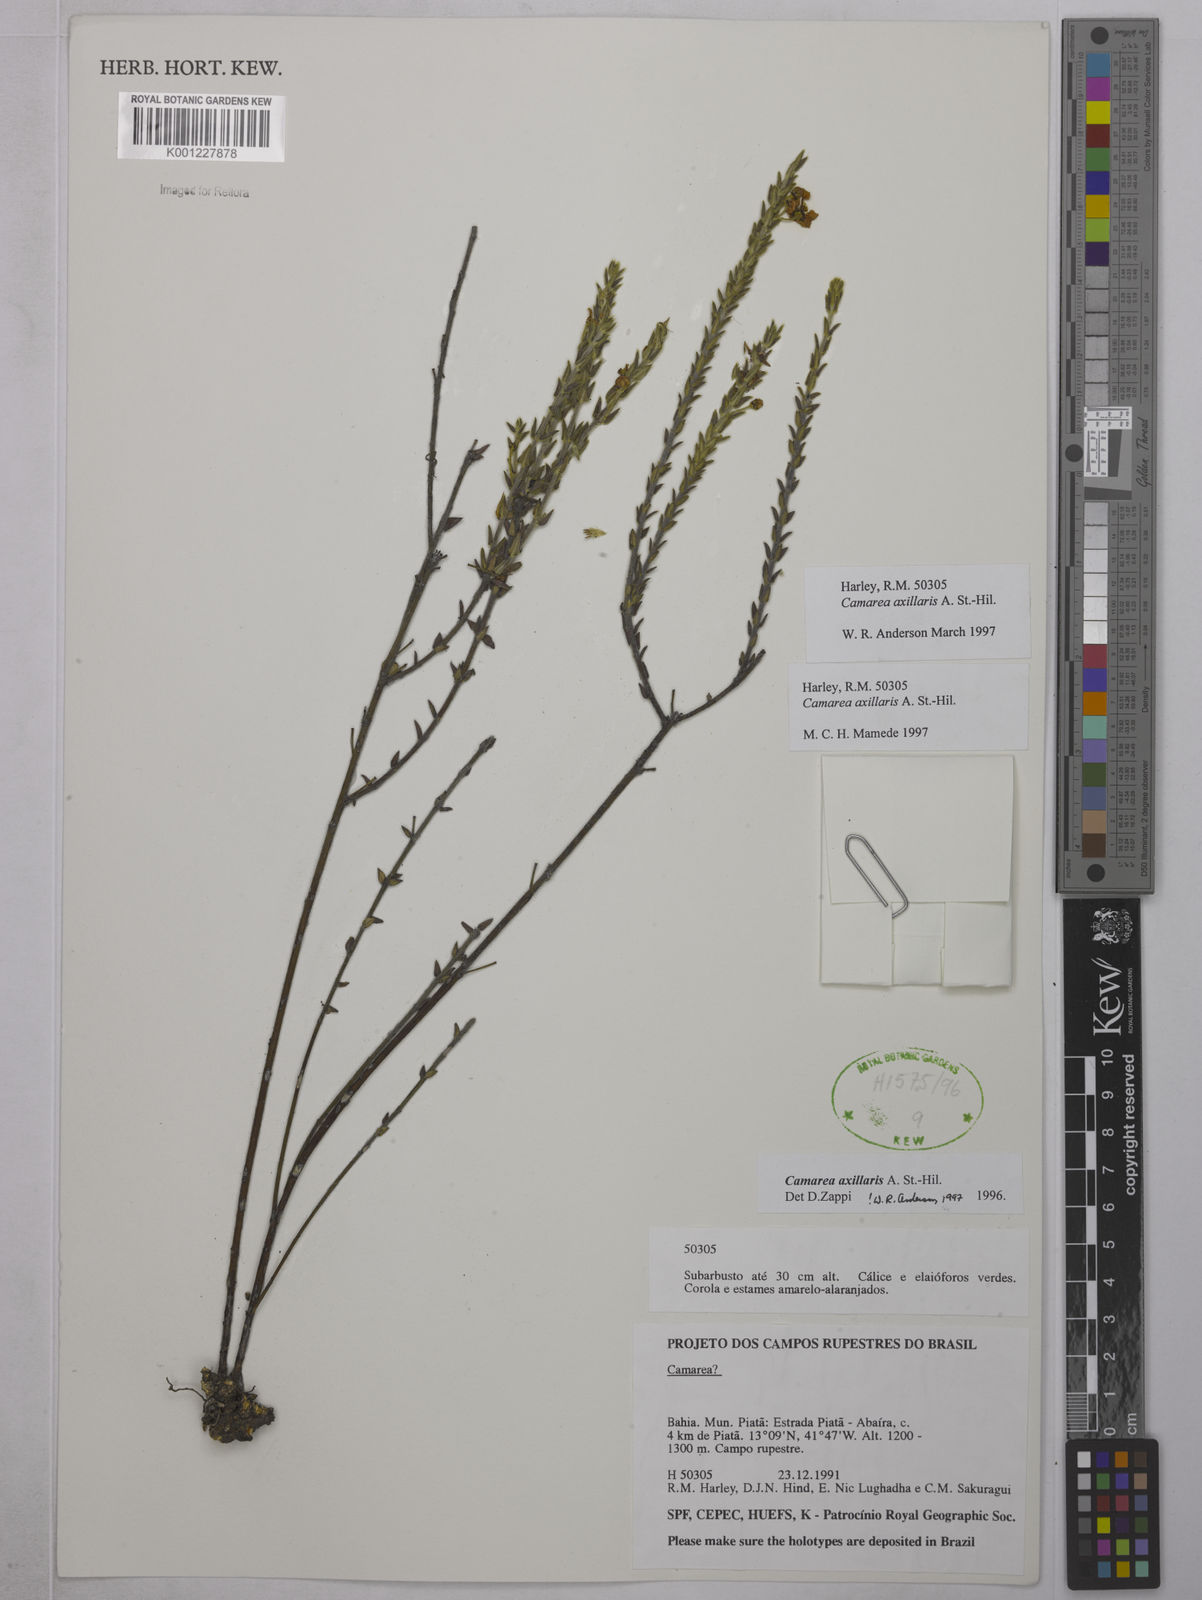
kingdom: Plantae
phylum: Tracheophyta
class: Magnoliopsida
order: Malpighiales
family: Malpighiaceae
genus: Camarea
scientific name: Camarea axillaris
